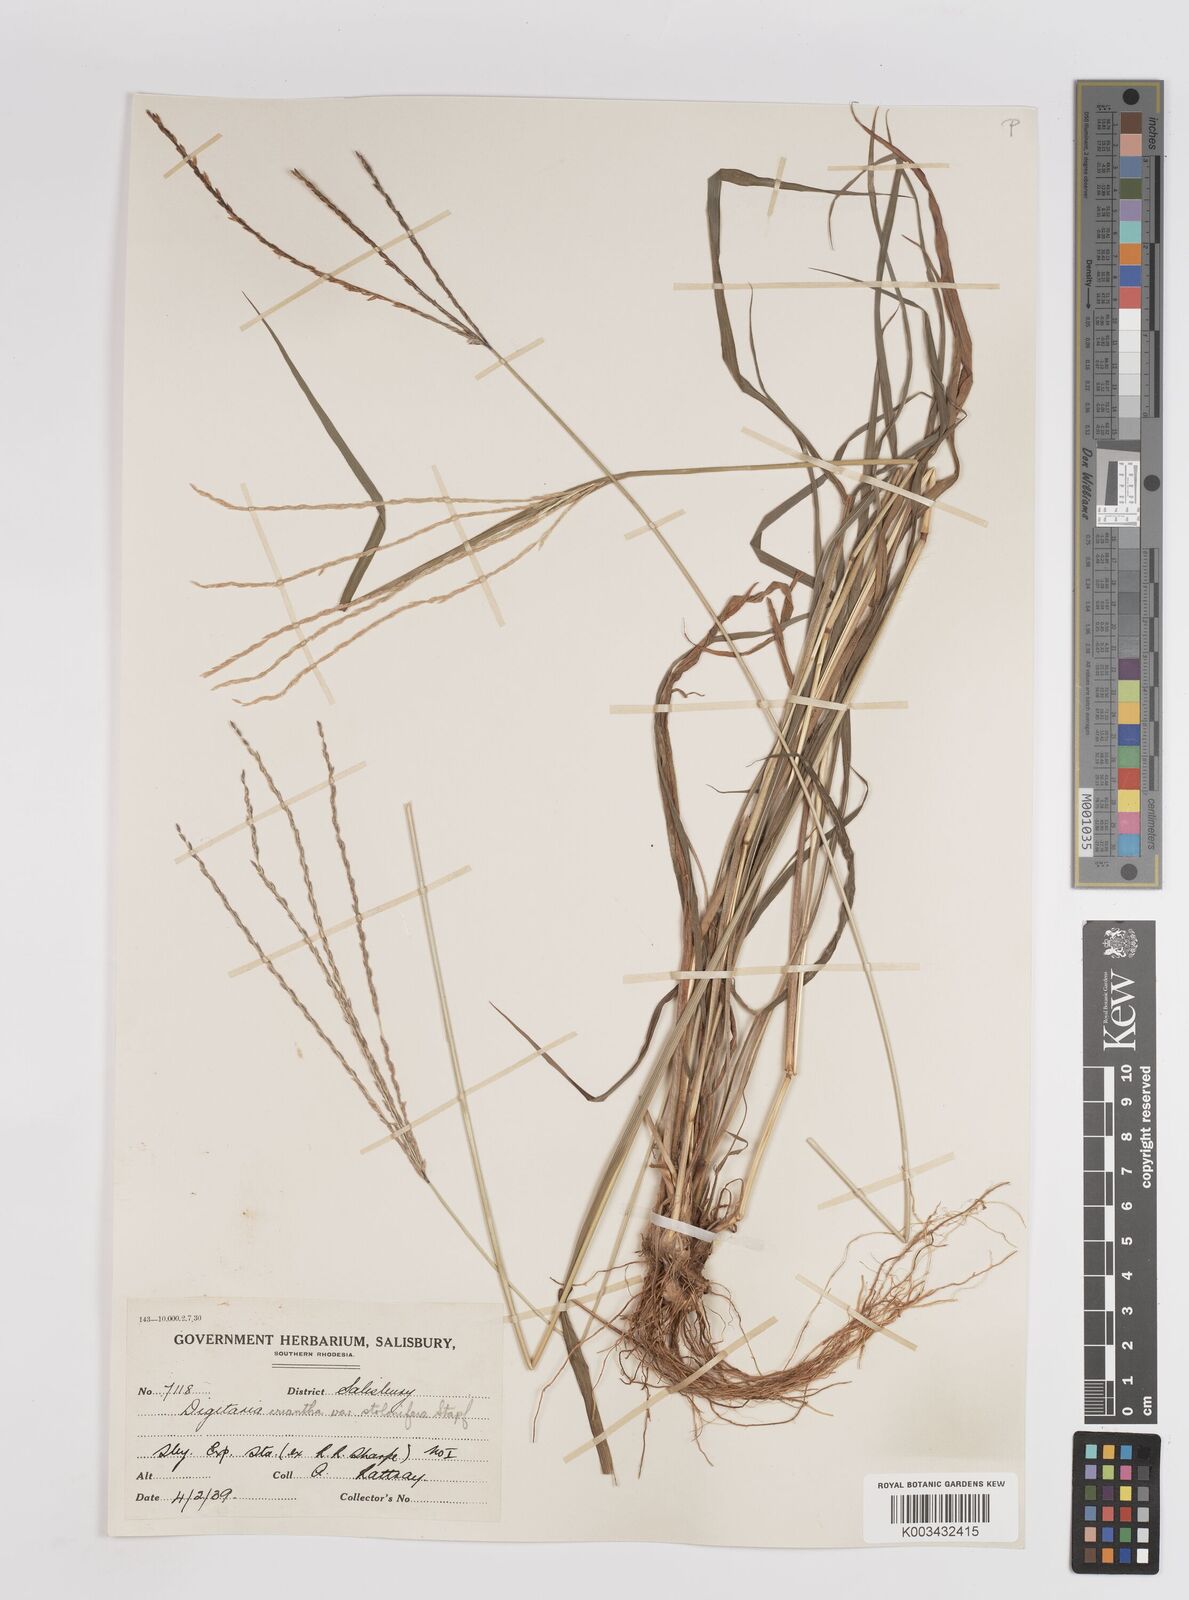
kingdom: Plantae
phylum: Tracheophyta
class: Liliopsida
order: Poales
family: Poaceae
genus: Digitaria
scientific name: Digitaria eriantha
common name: Digitgrass
